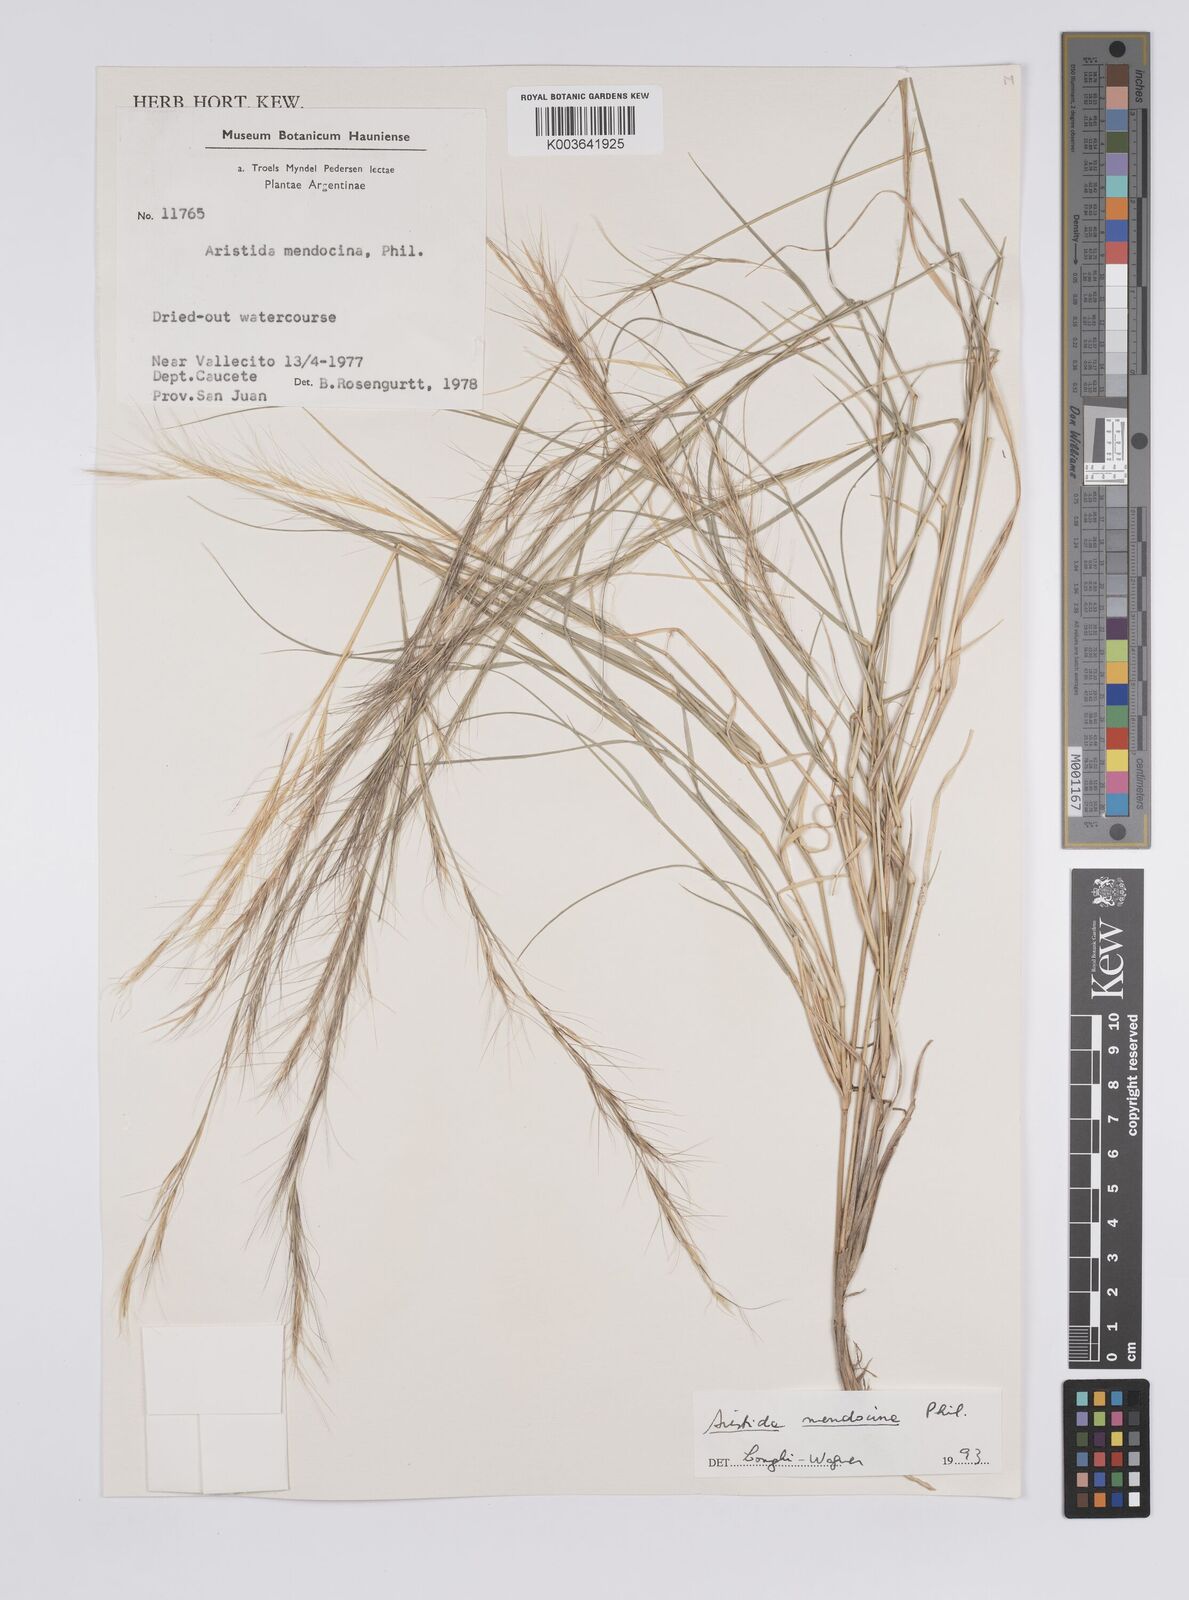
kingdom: Plantae
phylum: Tracheophyta
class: Liliopsida
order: Poales
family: Poaceae
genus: Aristida
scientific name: Aristida mendocina
